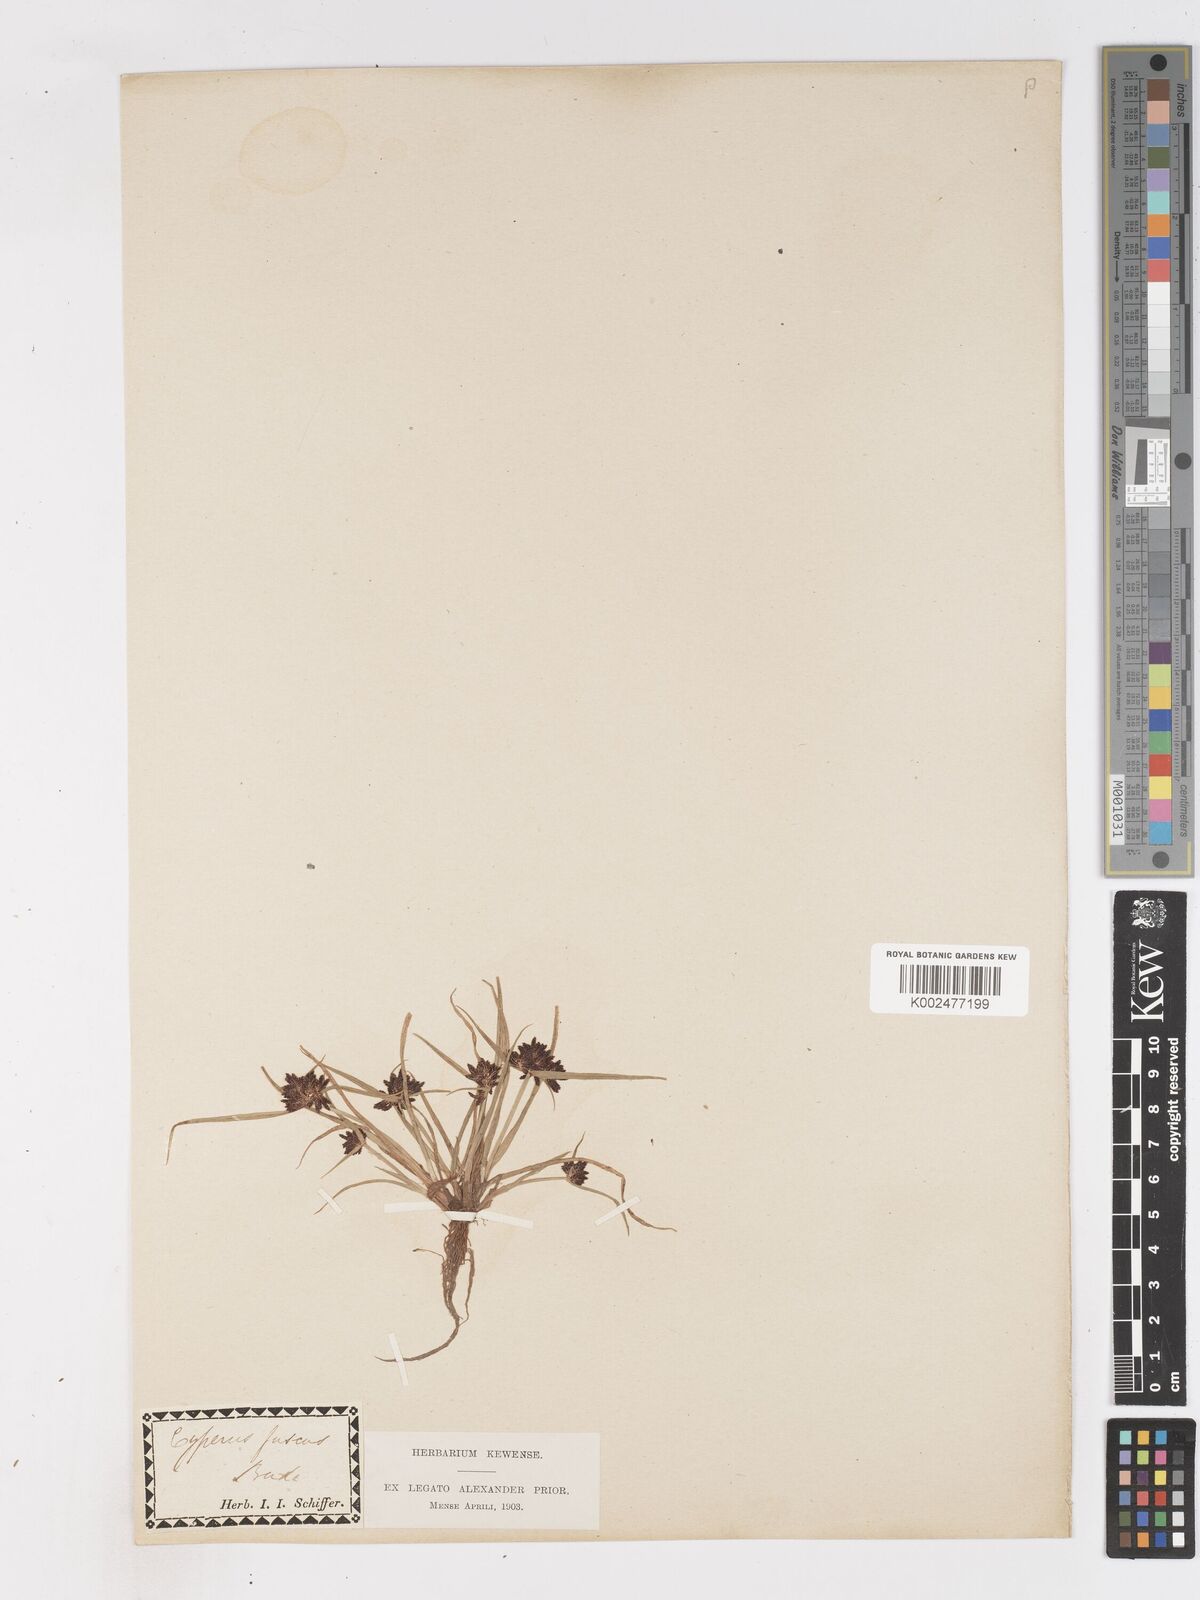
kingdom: Plantae
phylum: Tracheophyta
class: Liliopsida
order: Poales
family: Cyperaceae
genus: Cyperus
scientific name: Cyperus fuscus
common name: Brown galingale
